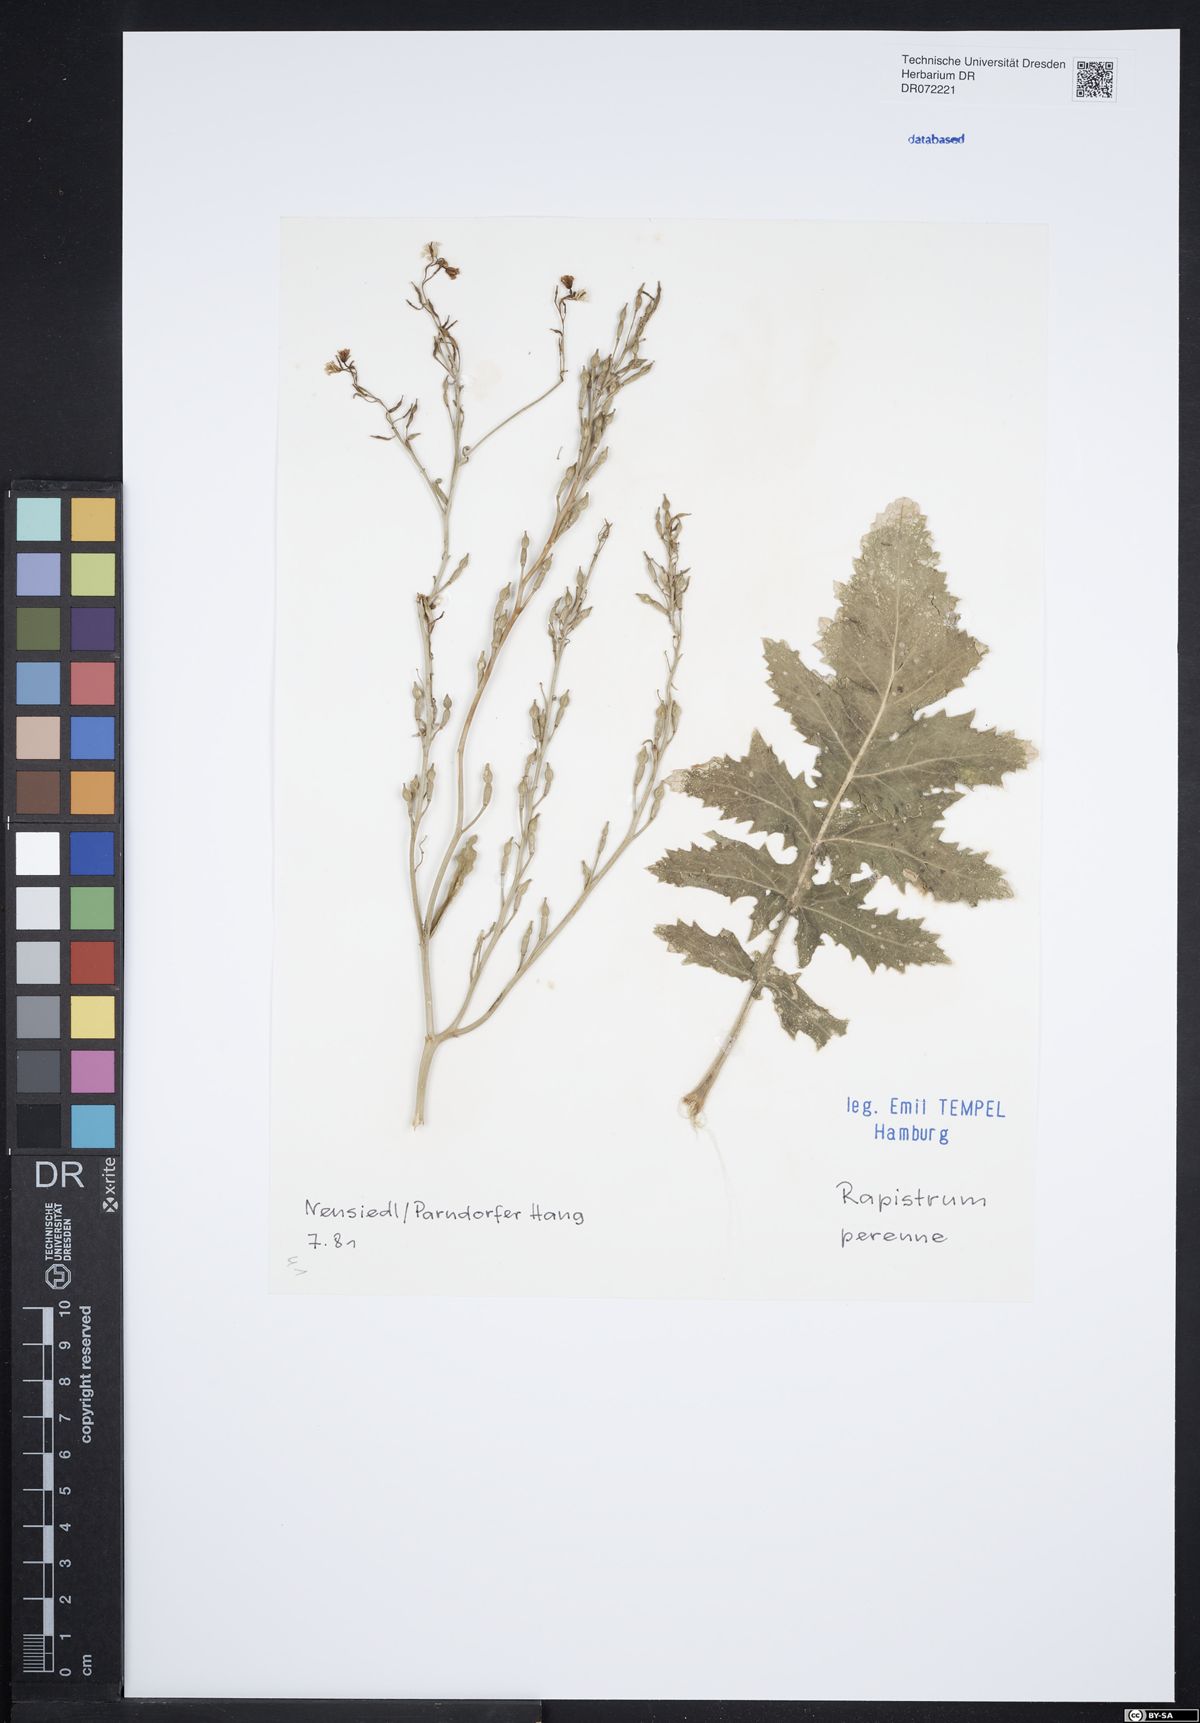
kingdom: Plantae
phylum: Tracheophyta
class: Magnoliopsida
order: Brassicales
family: Brassicaceae
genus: Rapistrum
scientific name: Rapistrum perenne
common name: Steppe cabbage
